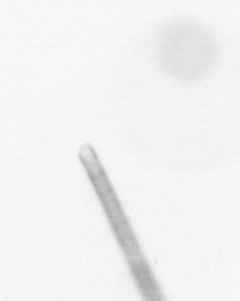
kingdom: Chromista
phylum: Ochrophyta
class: Bacillariophyceae
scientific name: Bacillariophyceae
